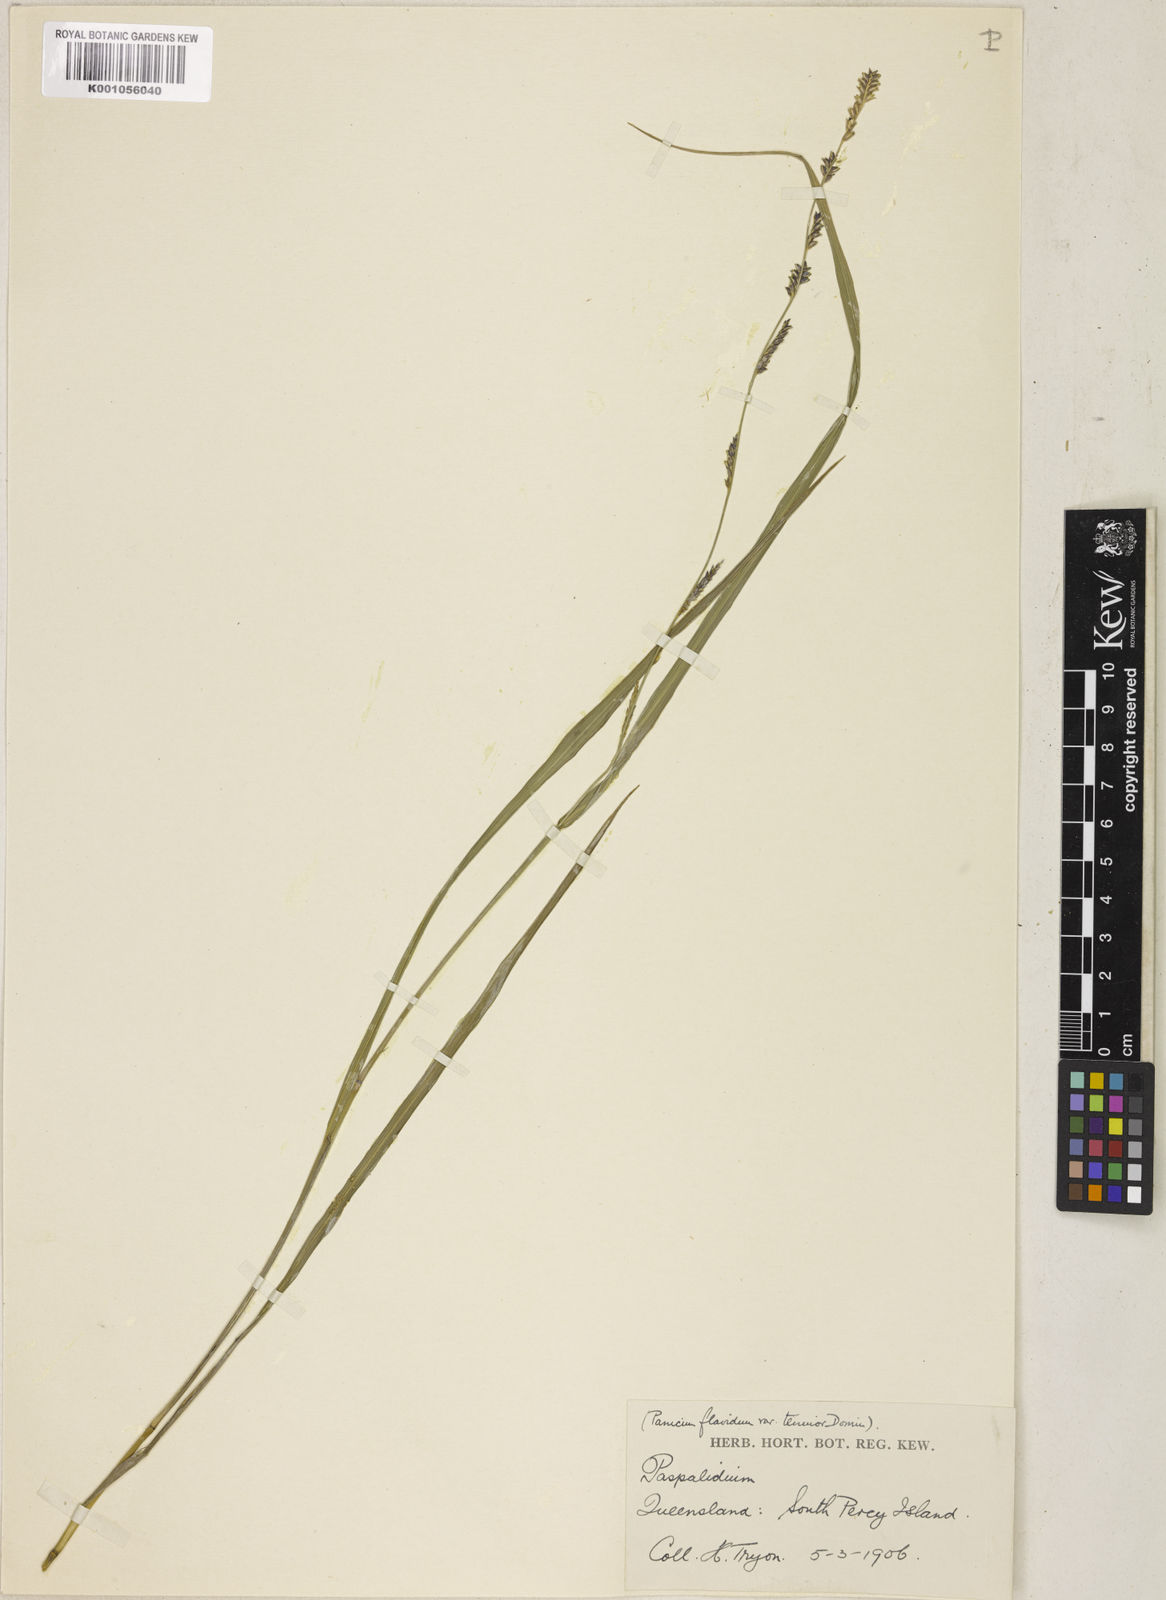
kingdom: Plantae
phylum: Tracheophyta
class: Liliopsida
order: Poales
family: Poaceae
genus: Setaria
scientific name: Setaria flavida
